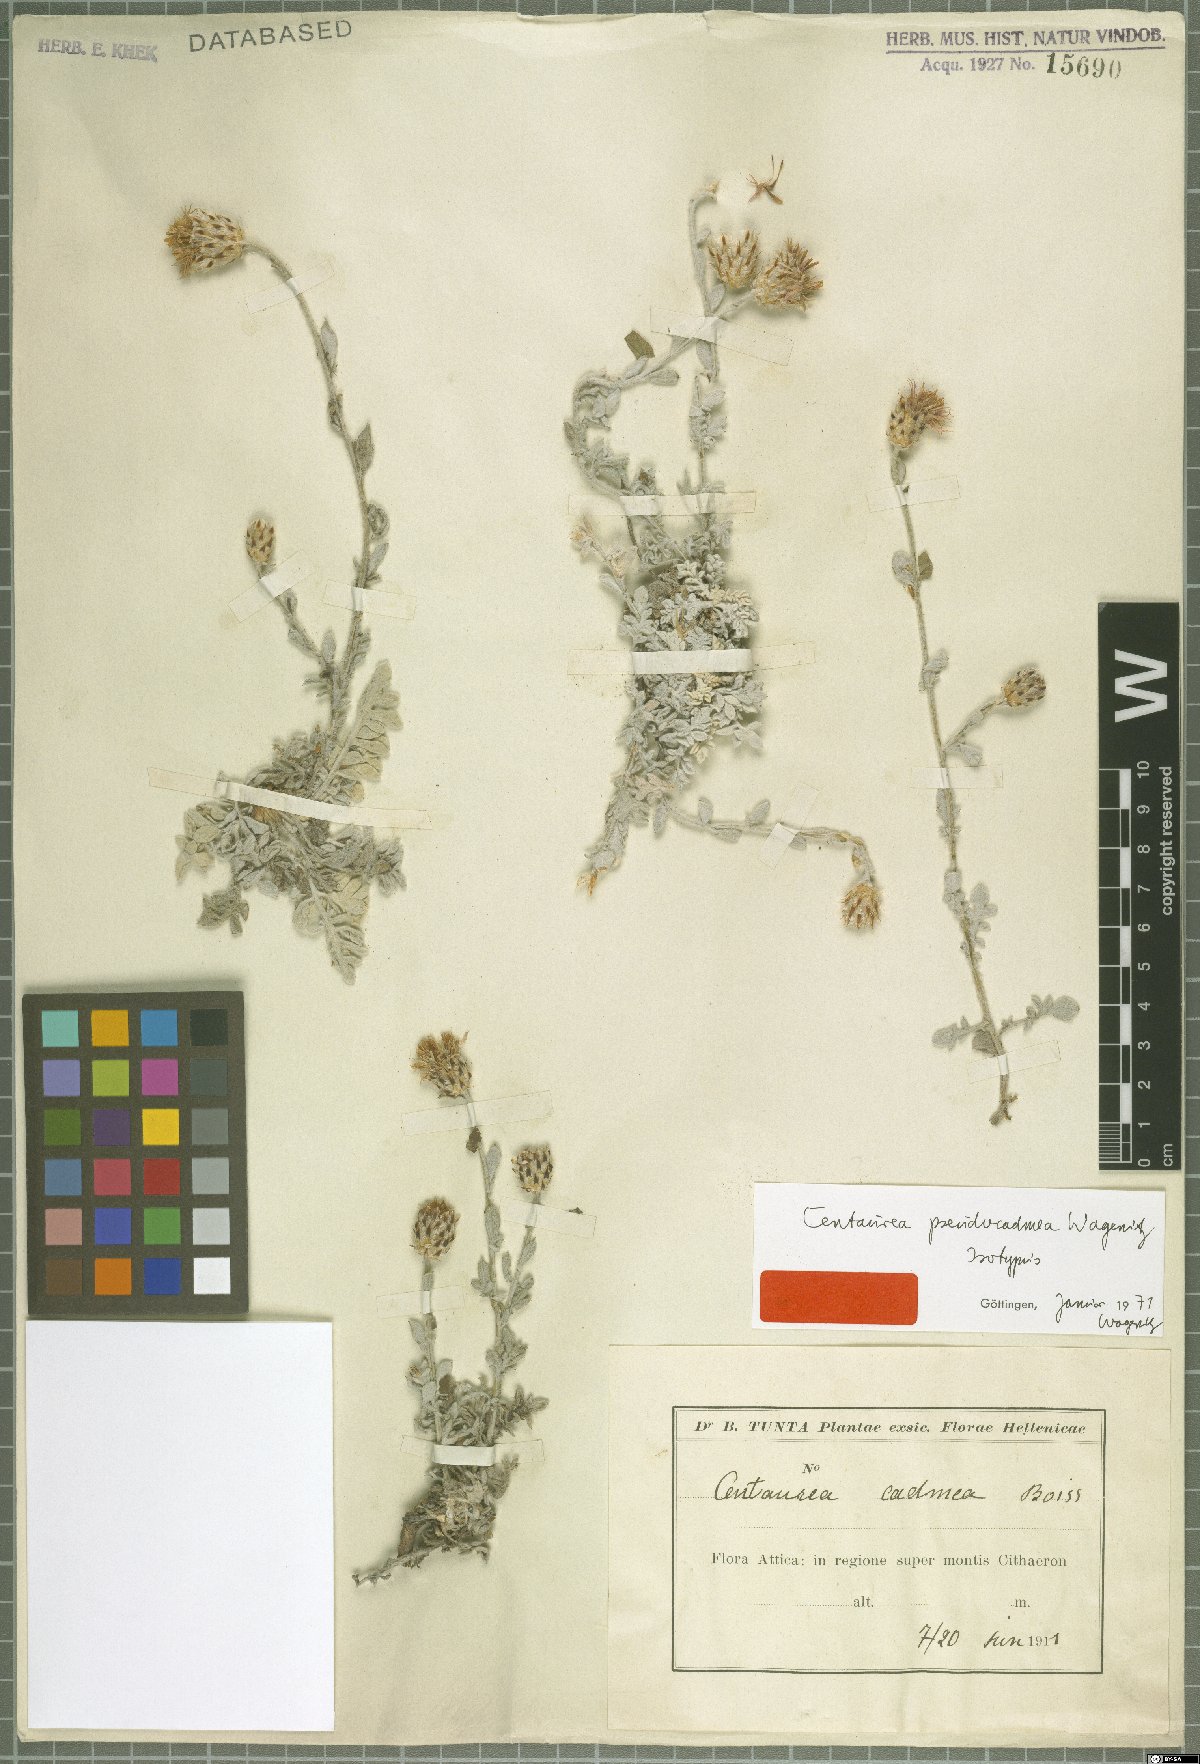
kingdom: Plantae
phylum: Tracheophyta
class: Magnoliopsida
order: Asterales
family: Asteraceae
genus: Centaurea
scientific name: Centaurea pseudocadmea
